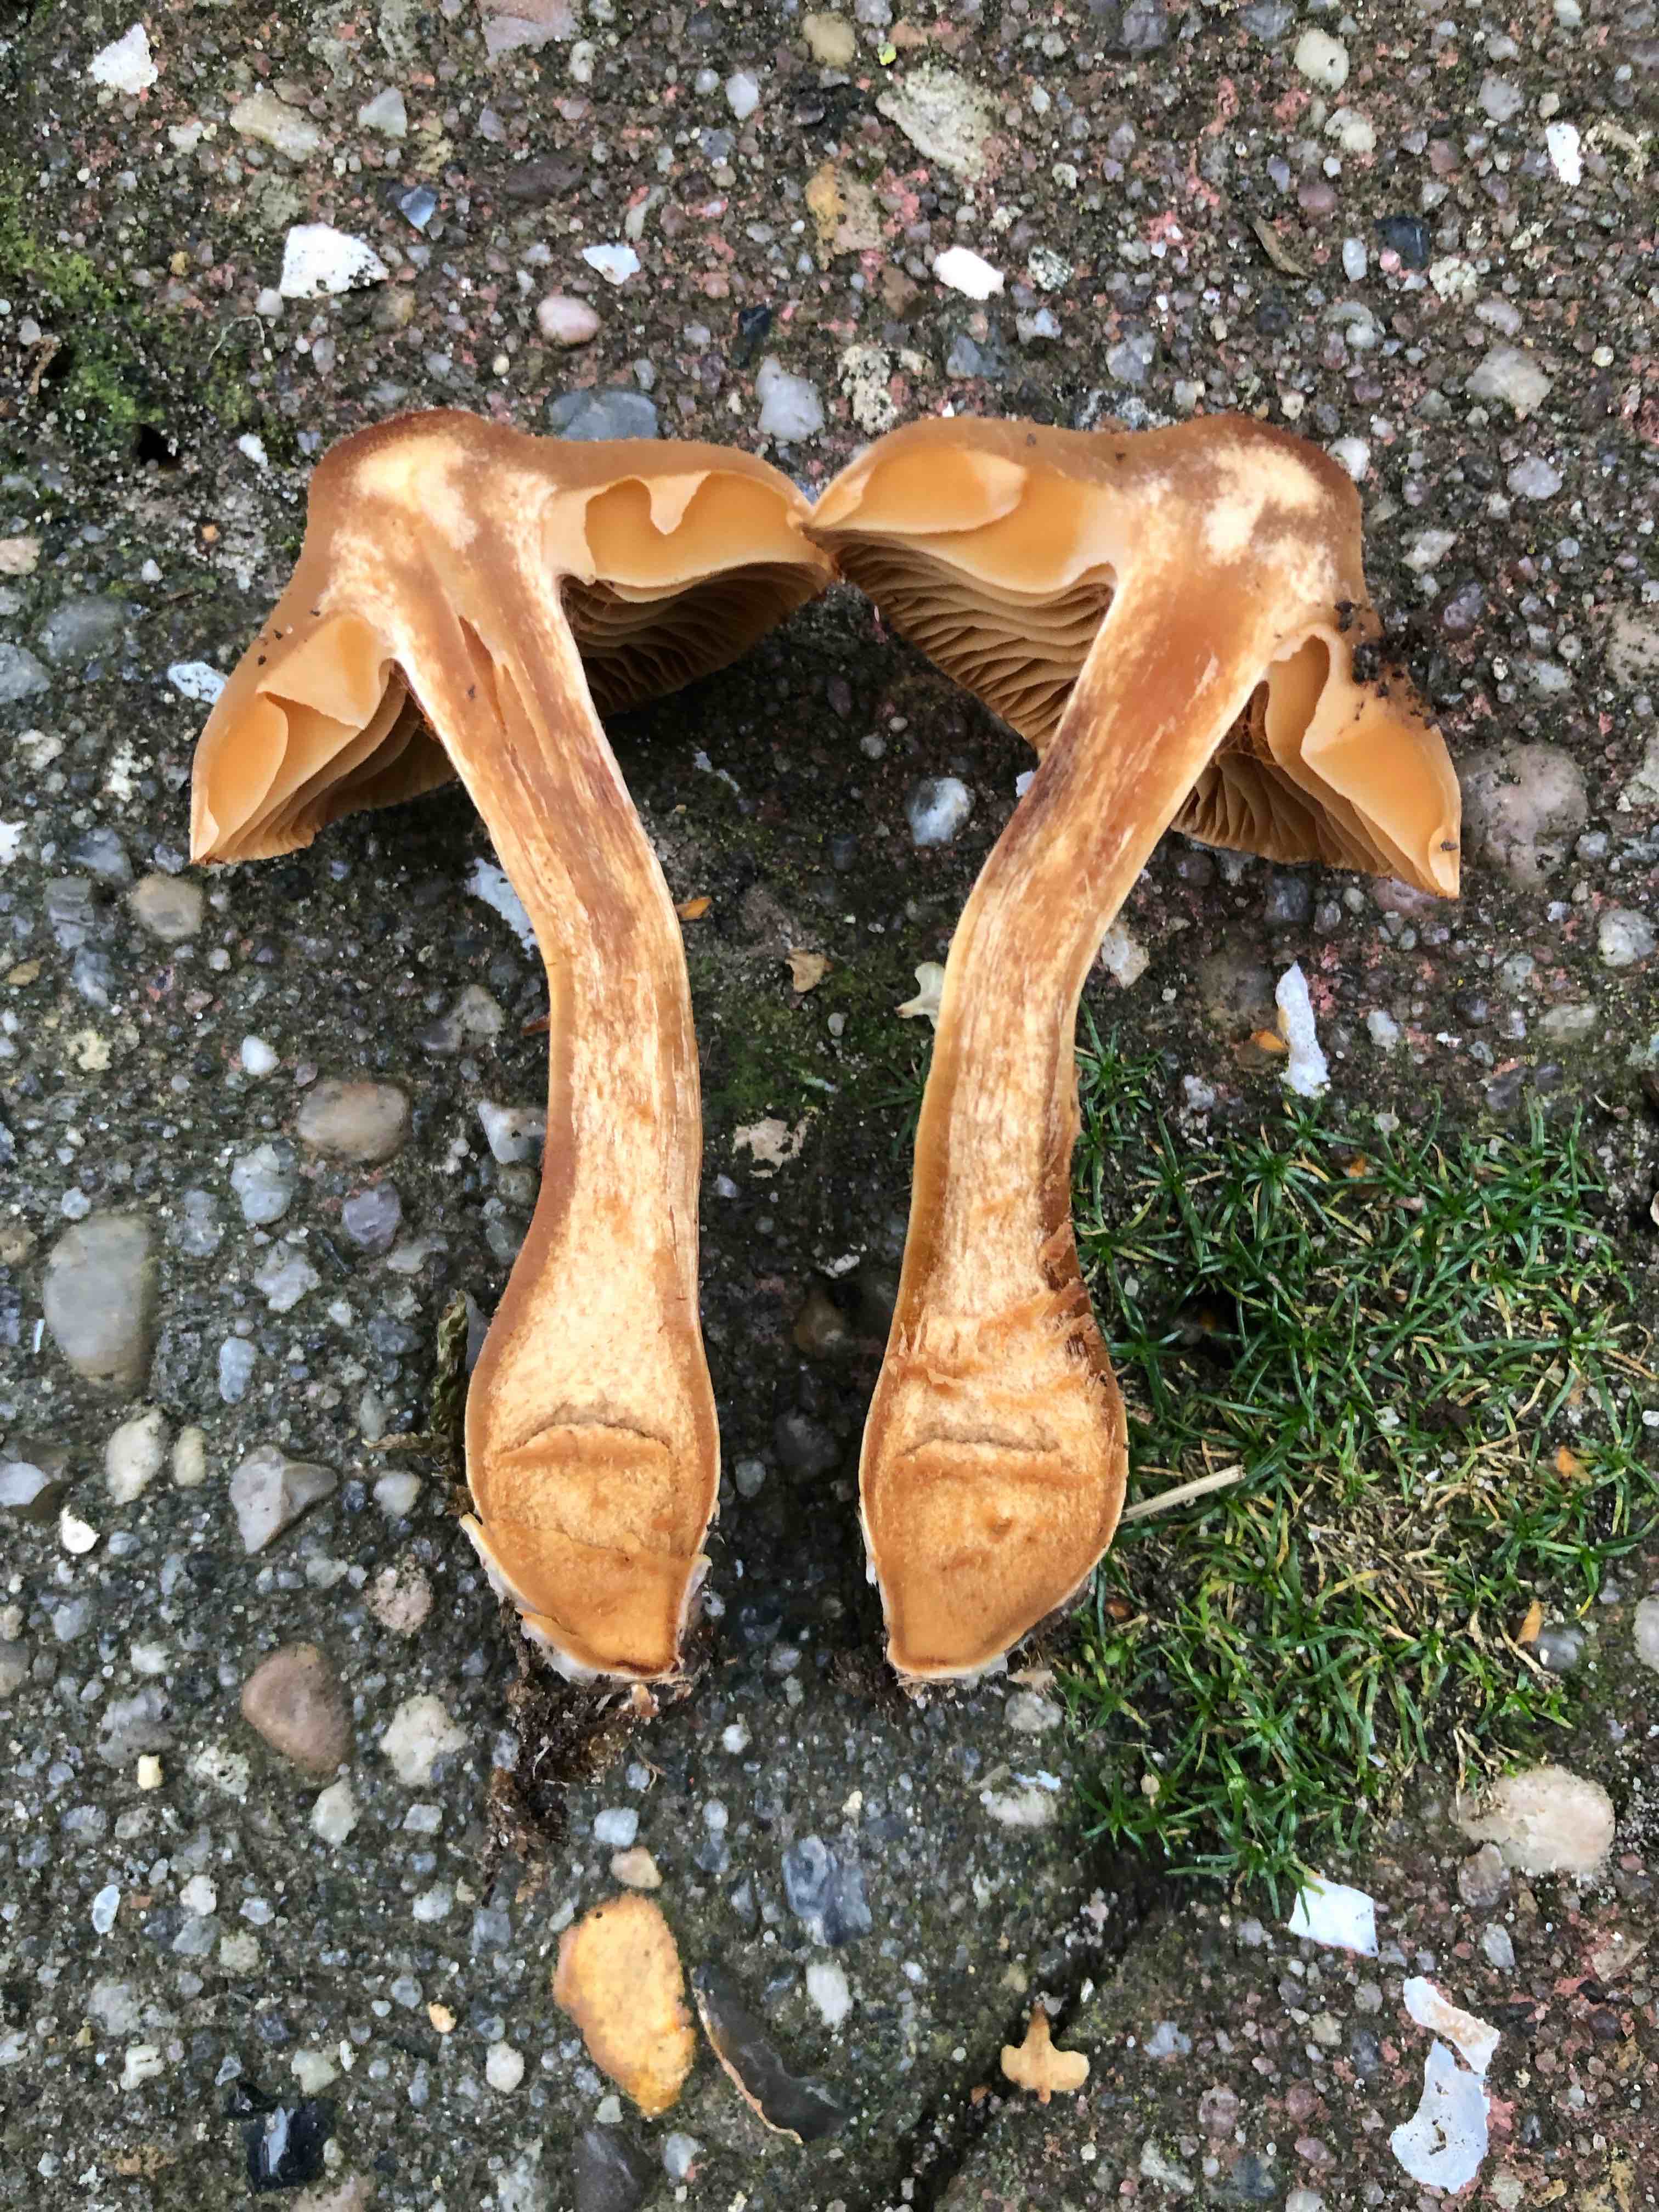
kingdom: Fungi
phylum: Basidiomycota
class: Agaricomycetes
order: Agaricales
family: Cortinariaceae
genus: Cortinarius
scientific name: Cortinarius
